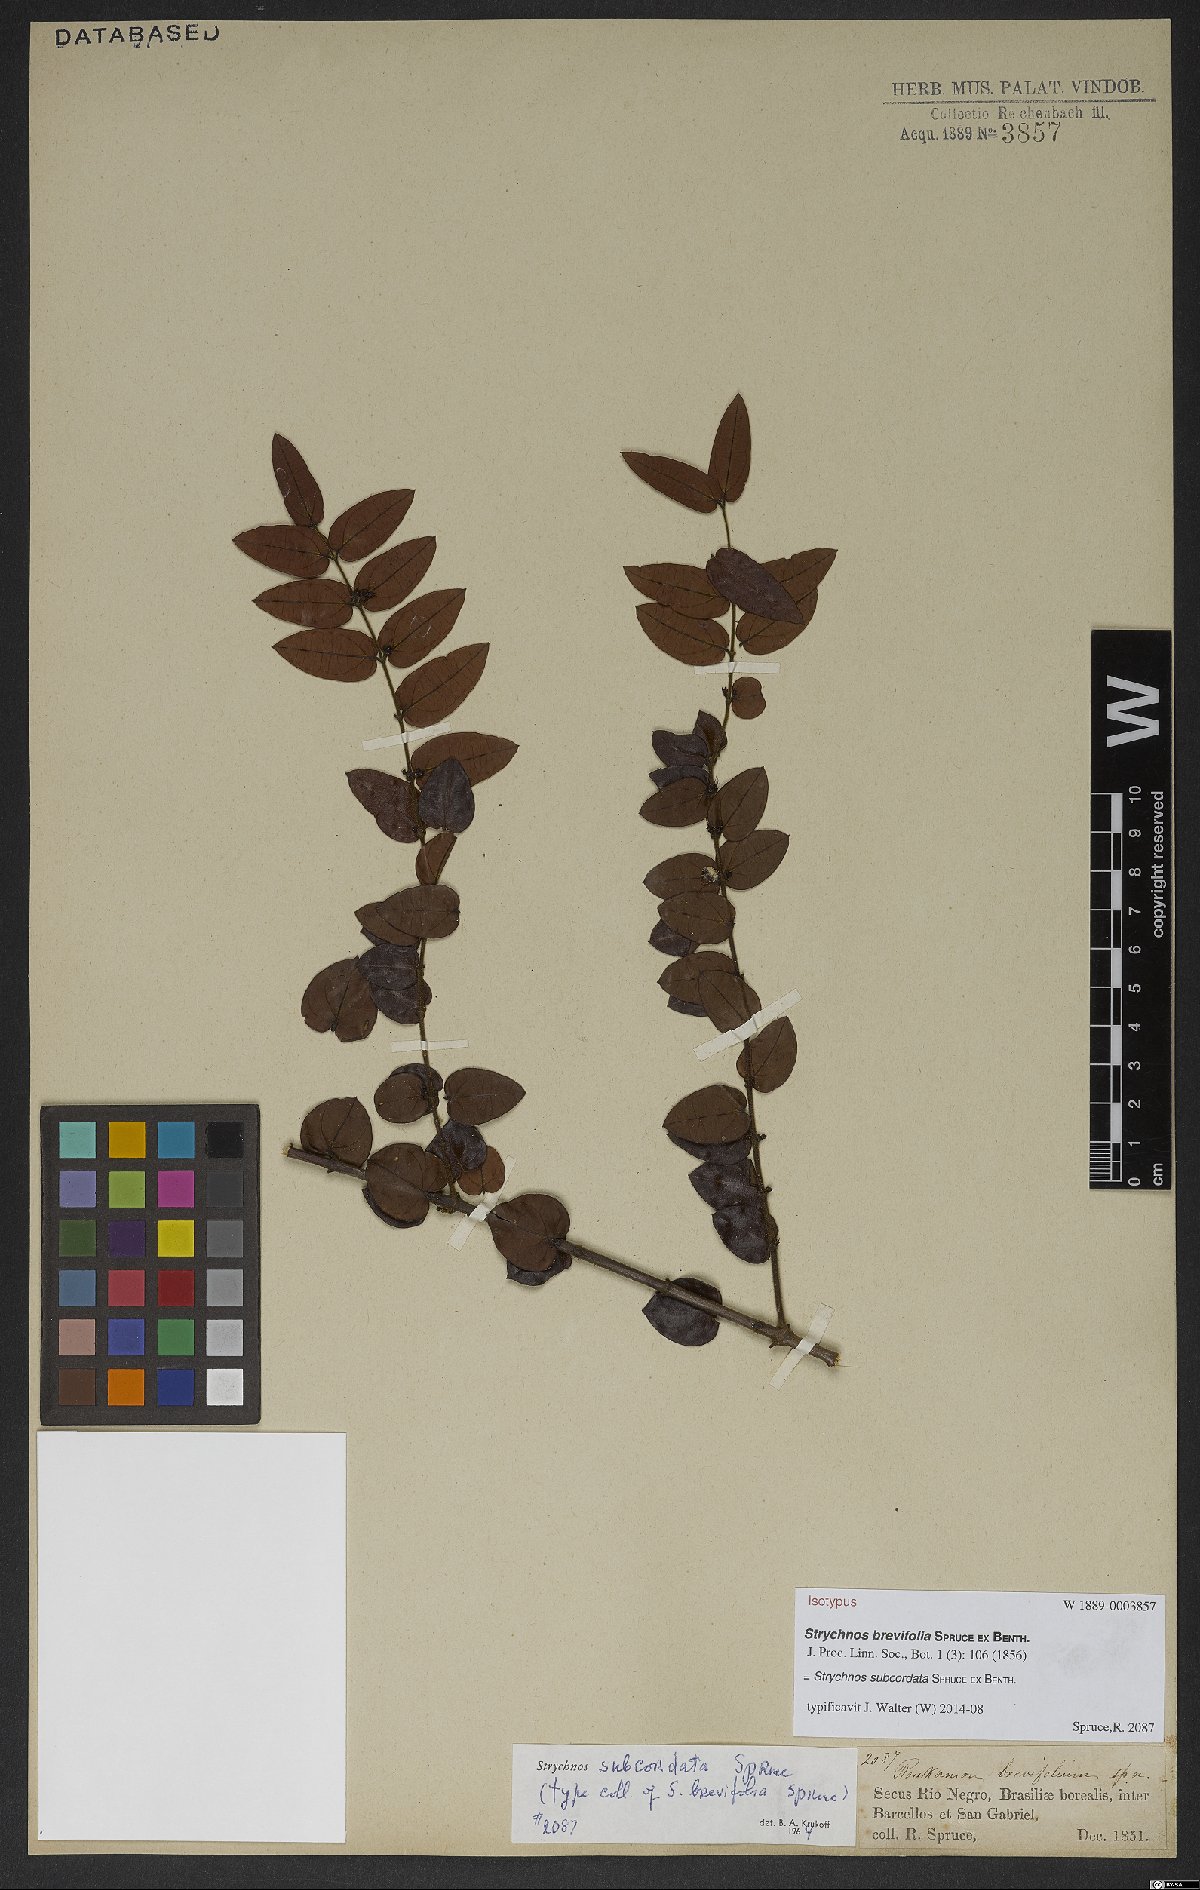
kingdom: Plantae
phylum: Tracheophyta
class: Magnoliopsida
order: Gentianales
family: Loganiaceae
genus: Strychnos
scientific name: Strychnos subcordata
